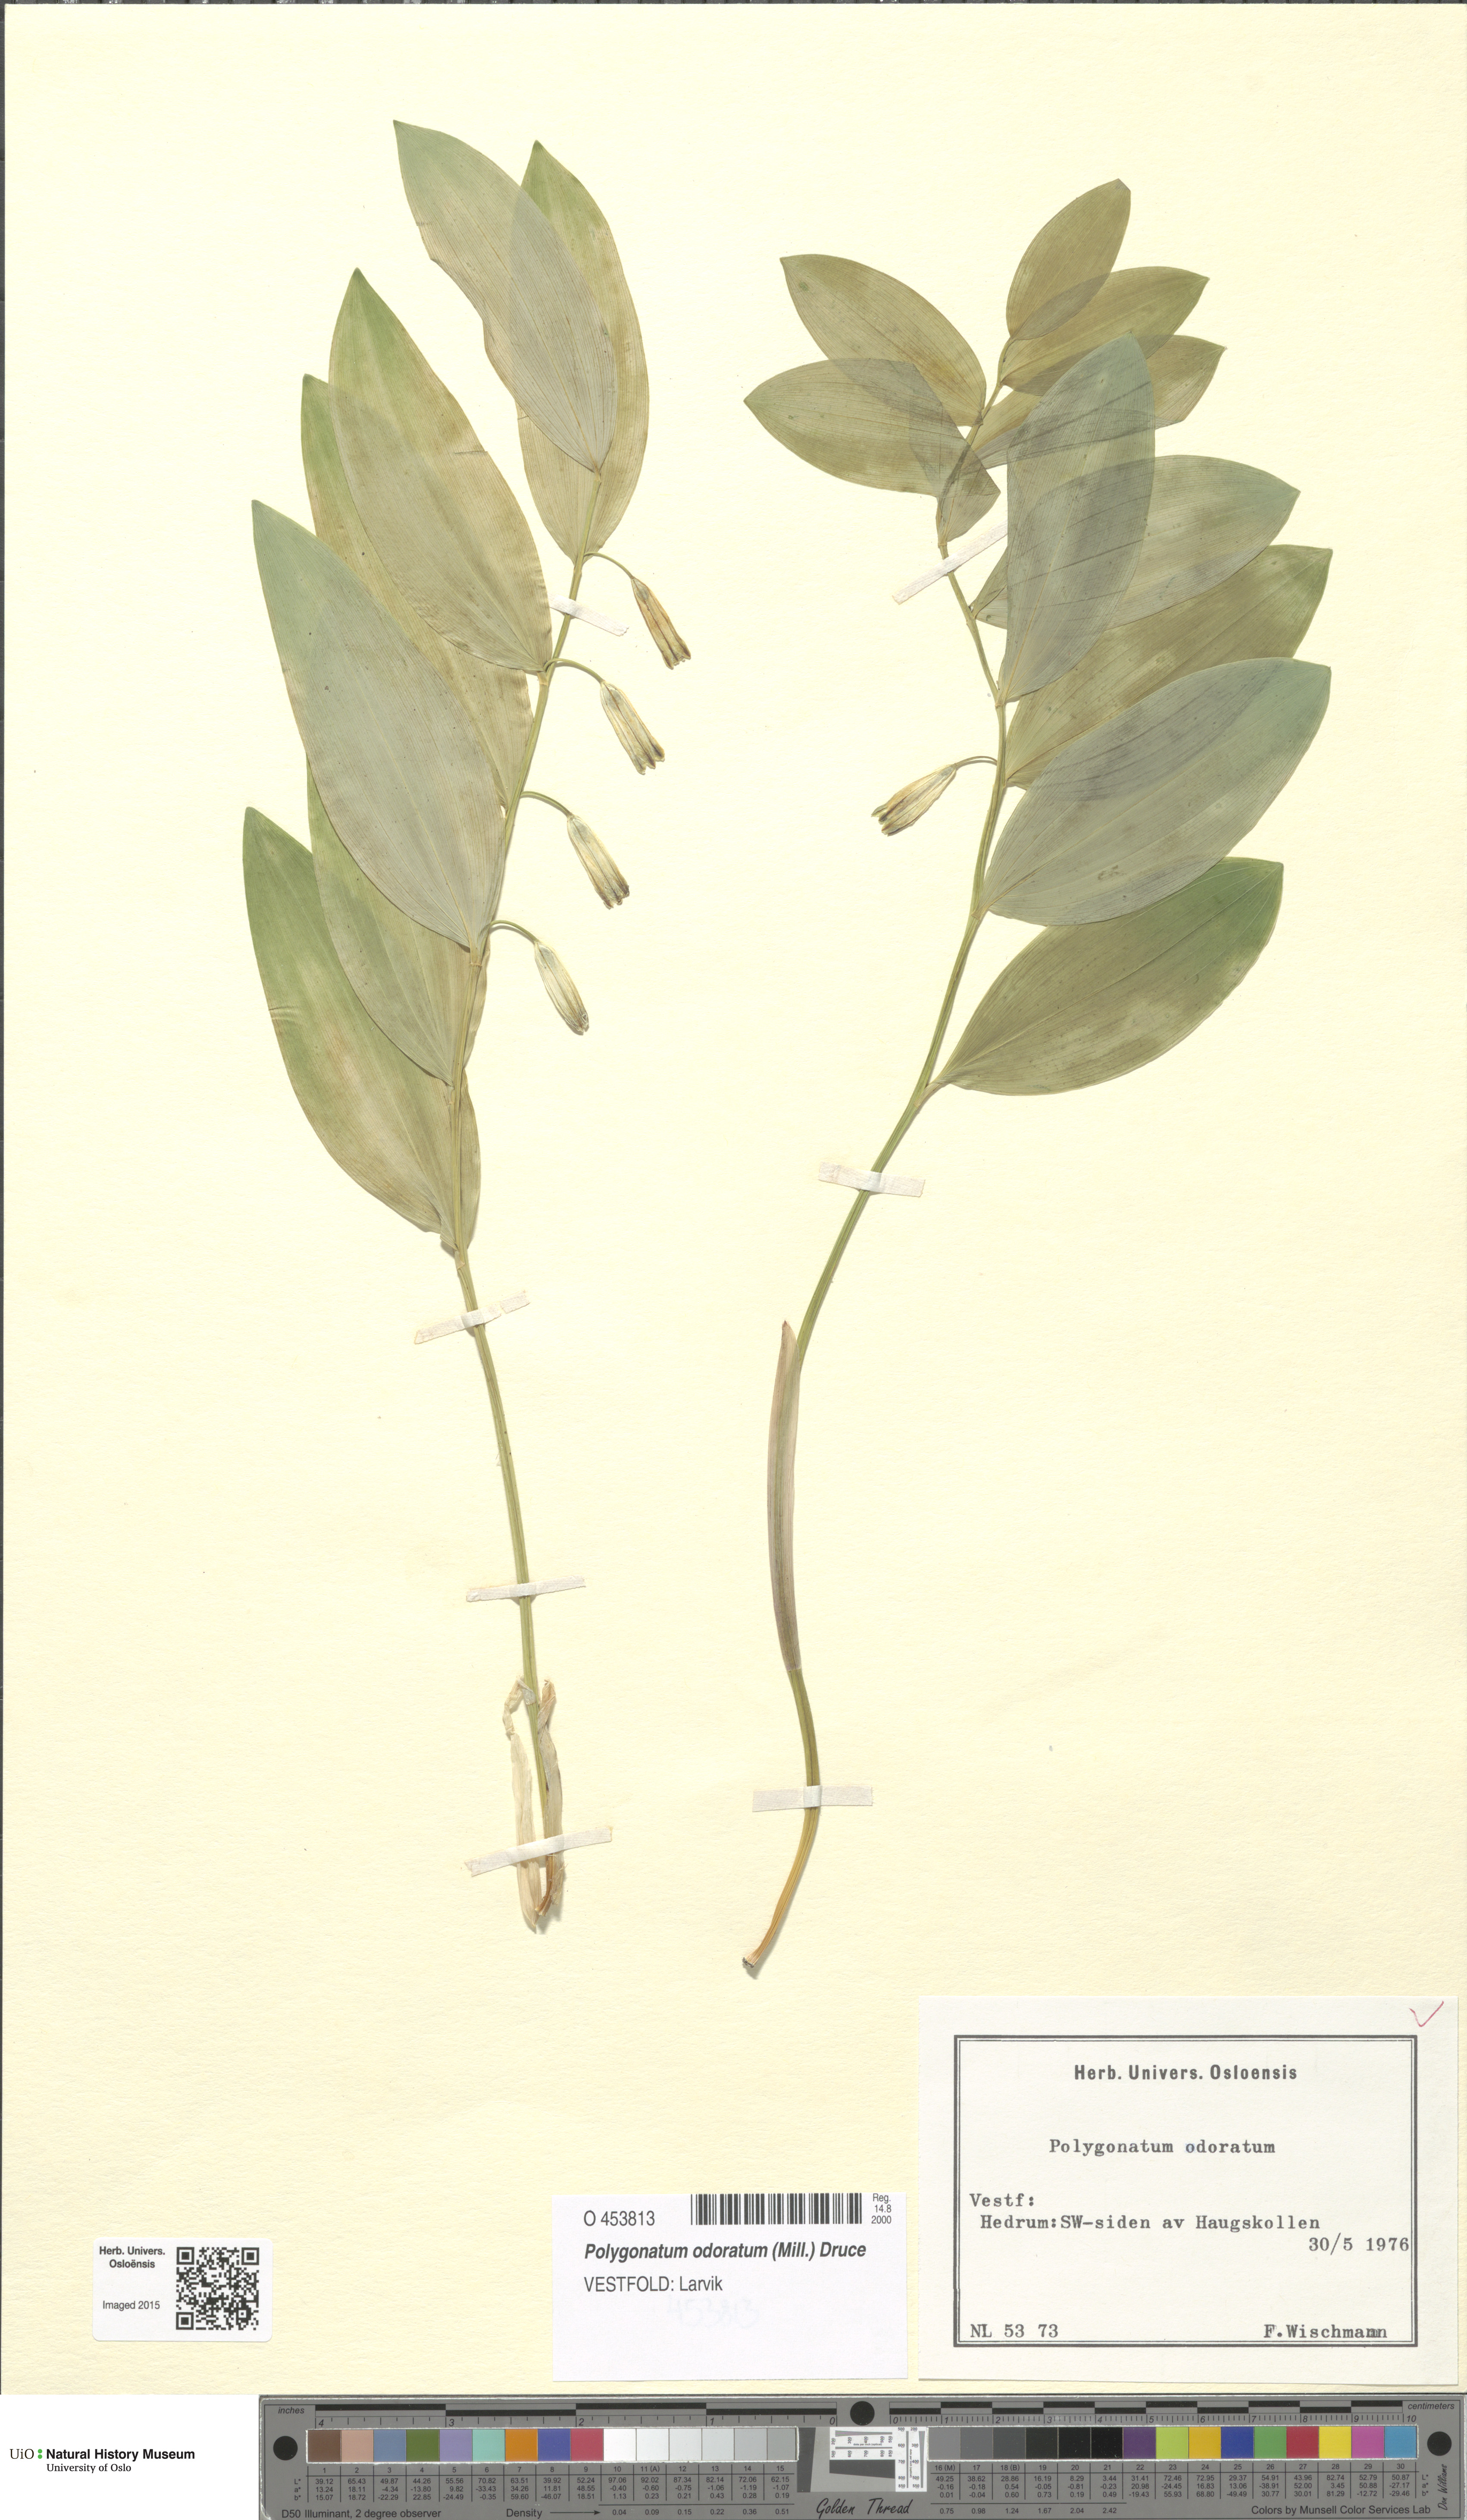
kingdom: Plantae
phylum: Tracheophyta
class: Liliopsida
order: Asparagales
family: Asparagaceae
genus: Polygonatum
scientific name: Polygonatum odoratum
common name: Angular solomon's-seal
